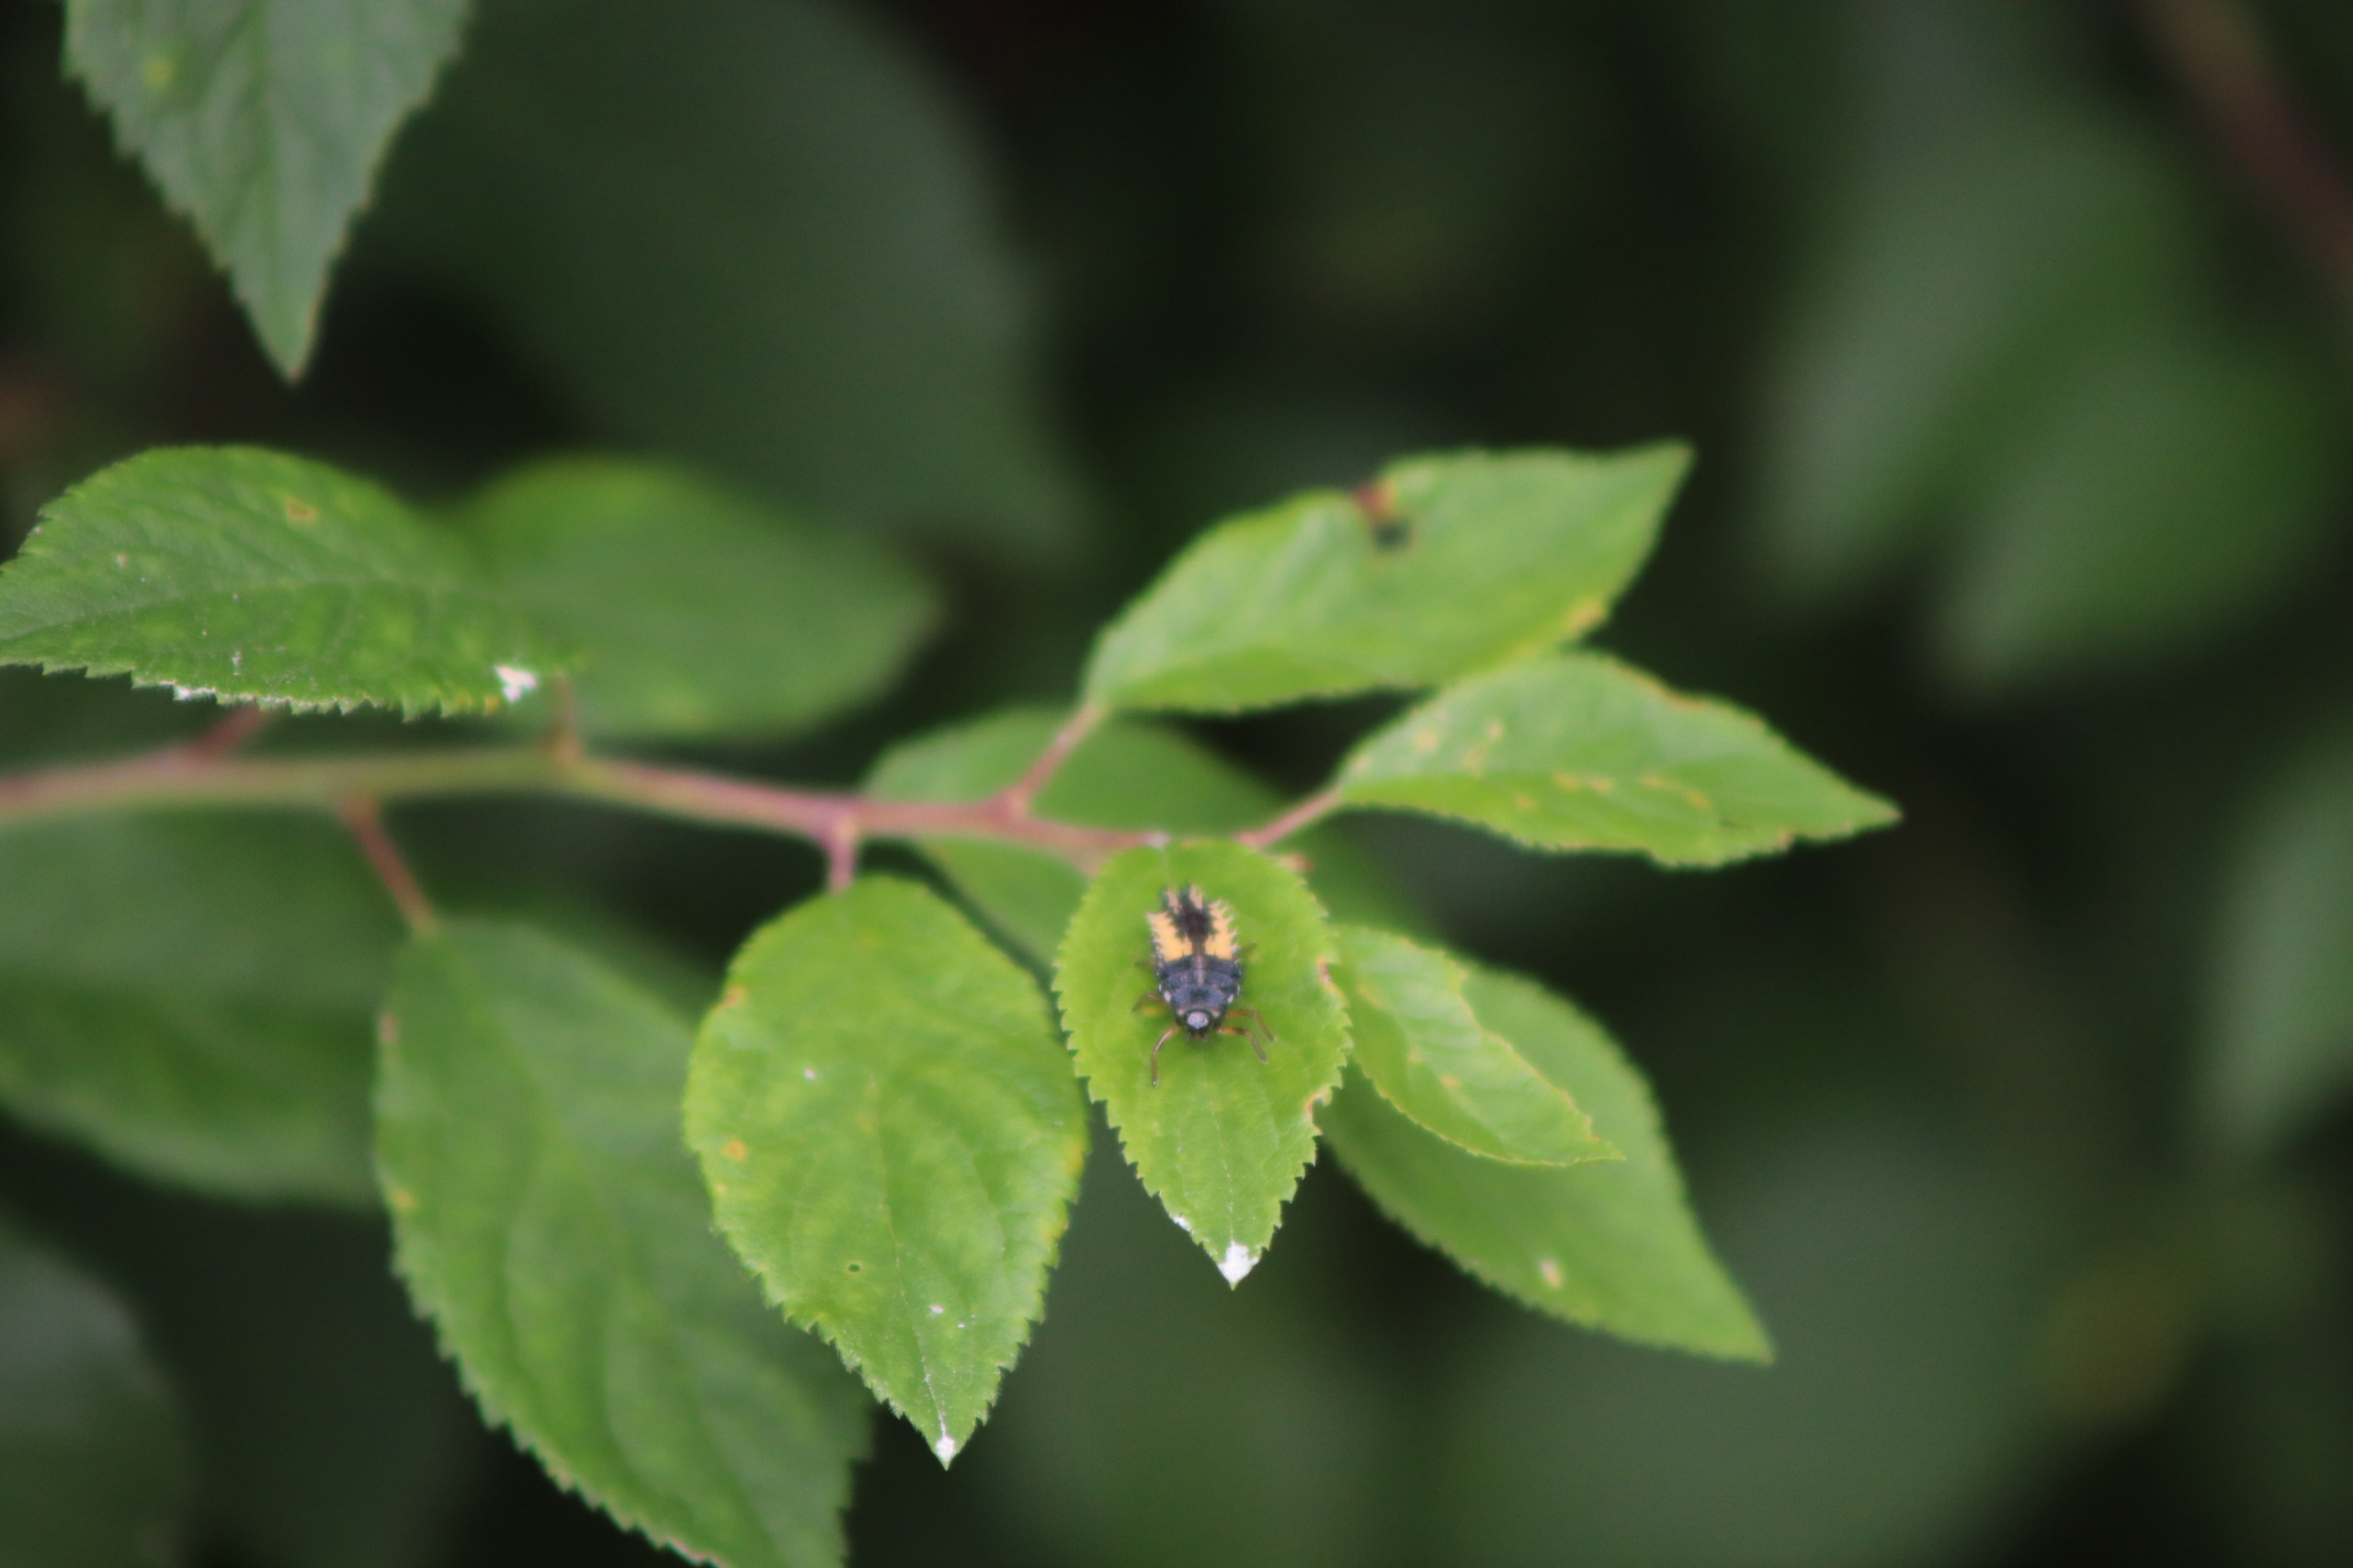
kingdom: Animalia
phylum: Arthropoda
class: Insecta
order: Coleoptera
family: Coccinellidae
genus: Harmonia
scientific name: Harmonia axyridis
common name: Harlekinmariehøne
